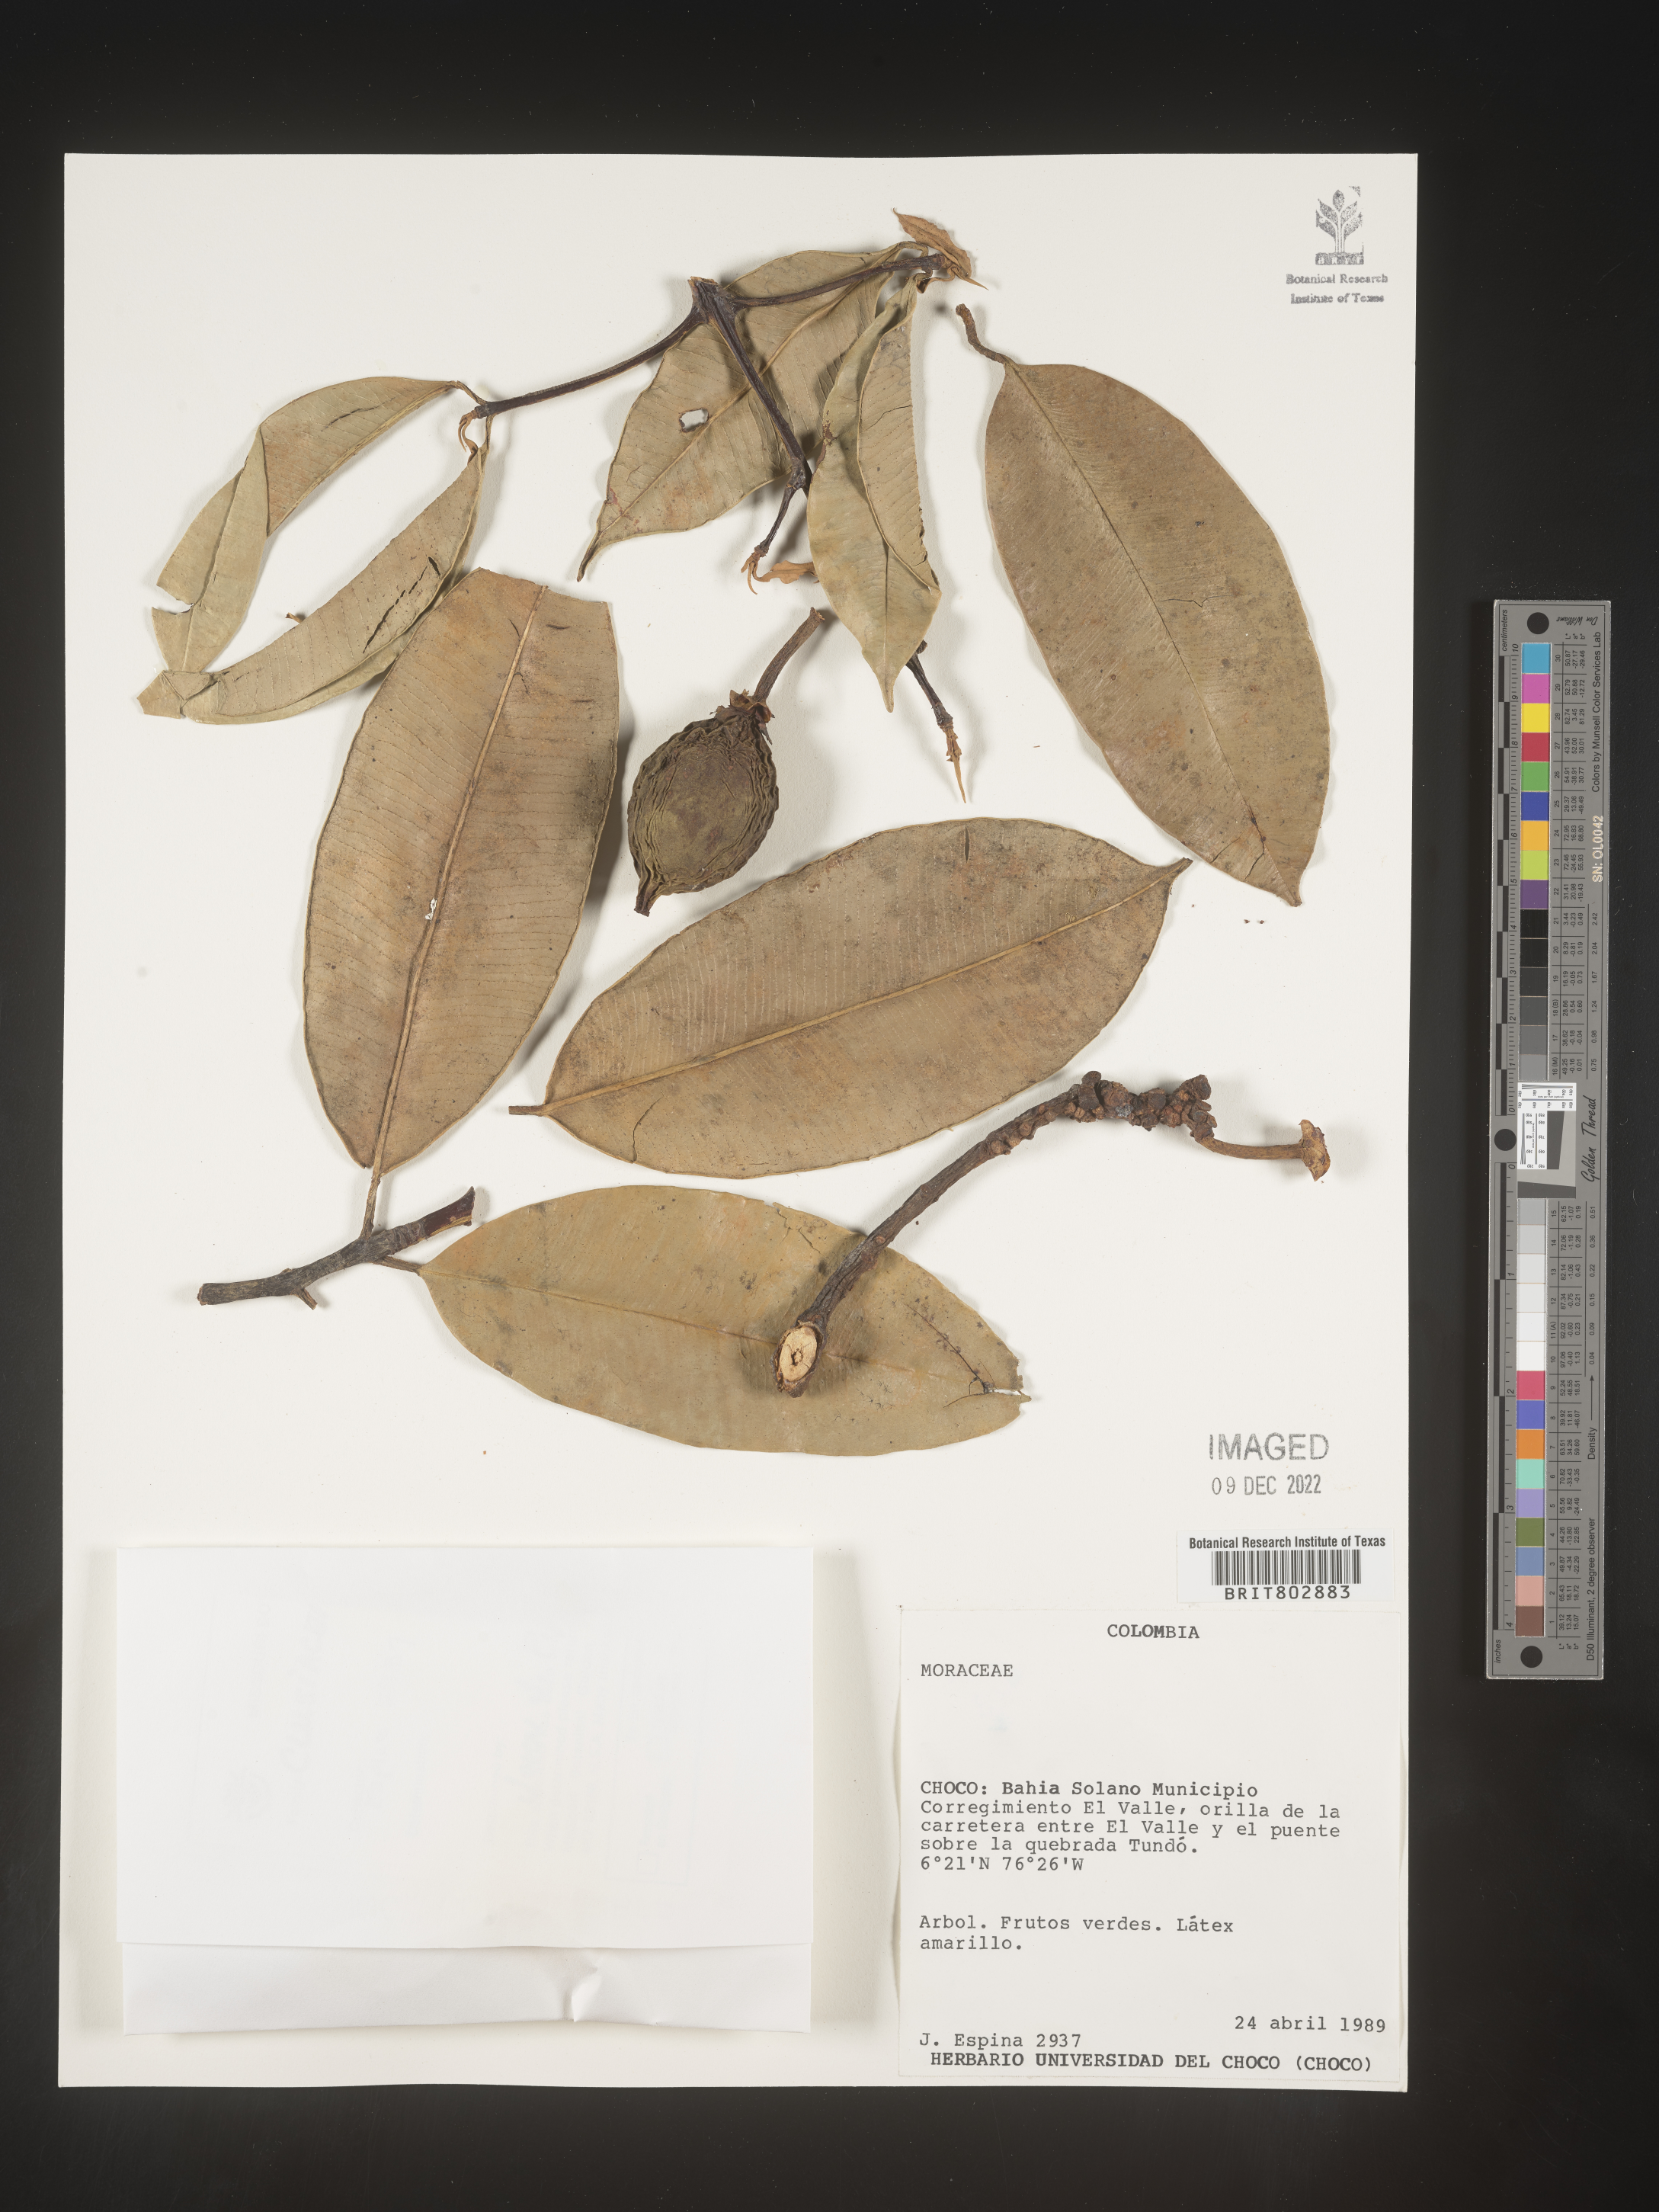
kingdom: Plantae
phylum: Tracheophyta
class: Magnoliopsida
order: Malpighiales
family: Clusiaceae
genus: Lorostemon
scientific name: Lorostemon
